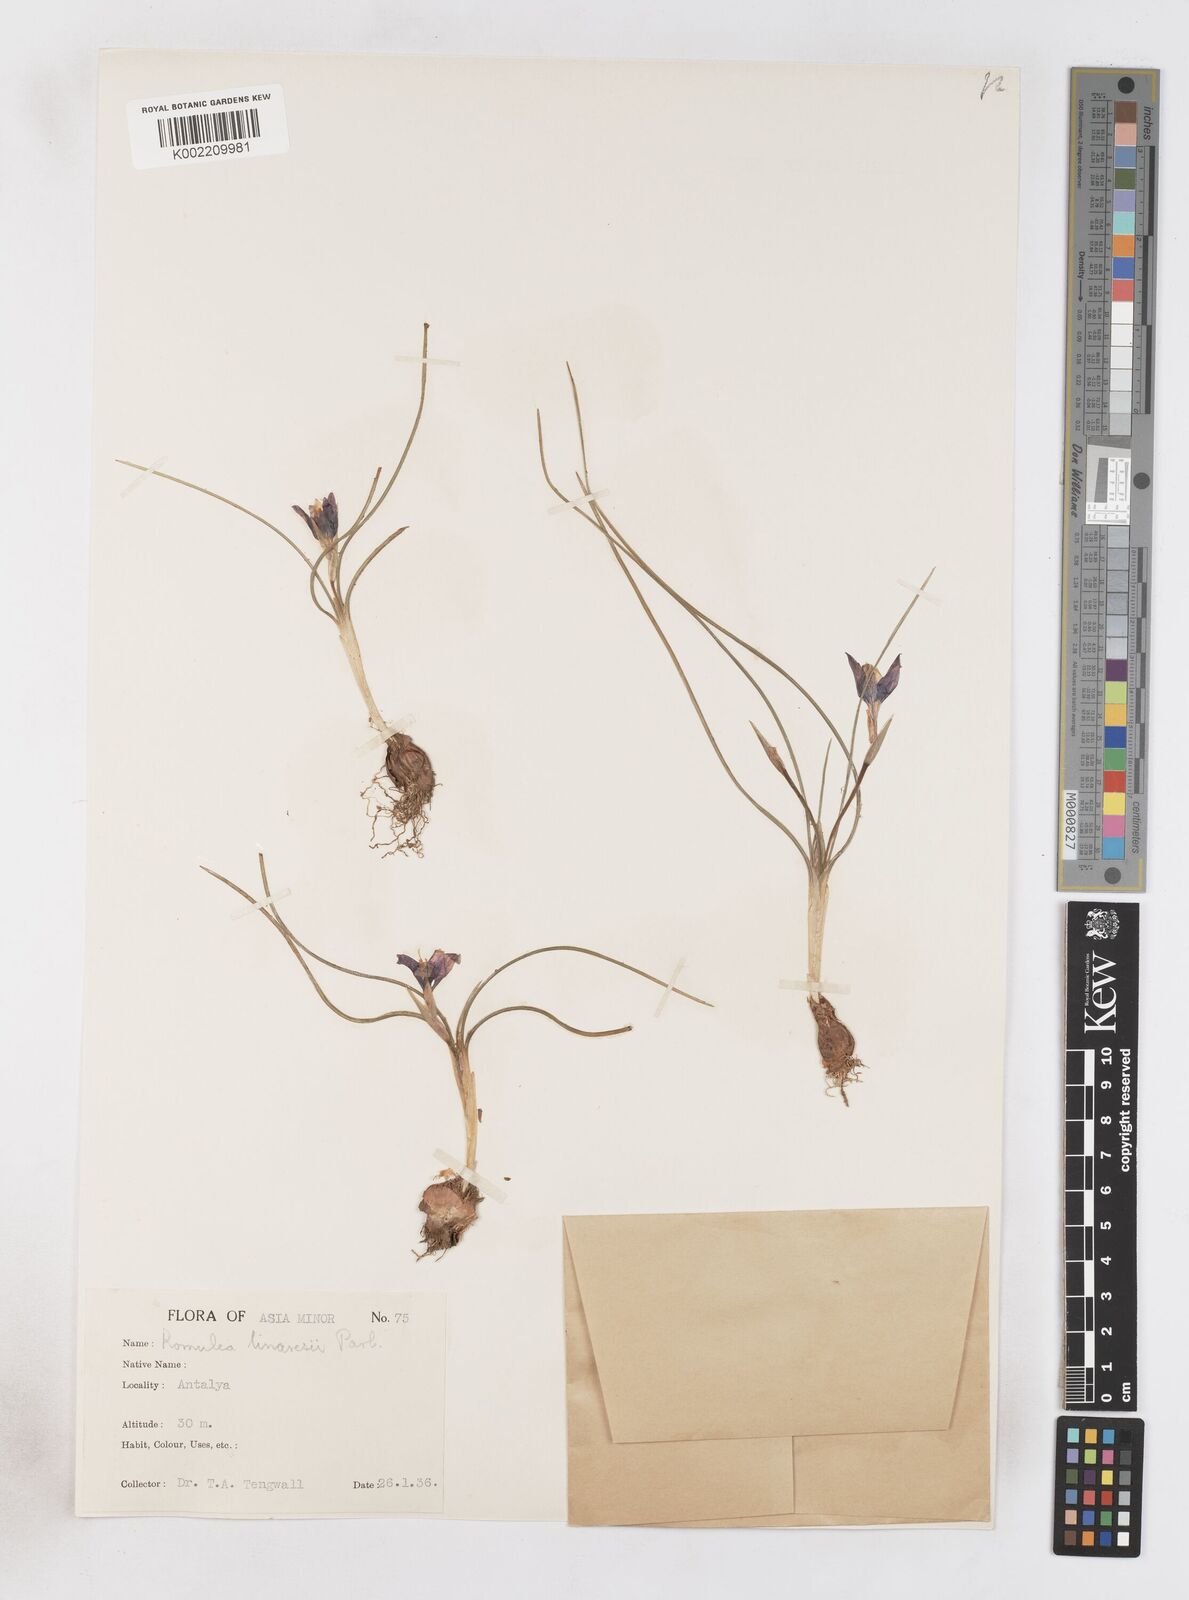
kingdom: Plantae
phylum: Tracheophyta
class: Liliopsida
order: Asparagales
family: Iridaceae
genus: Romulea
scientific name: Romulea tempskyana
